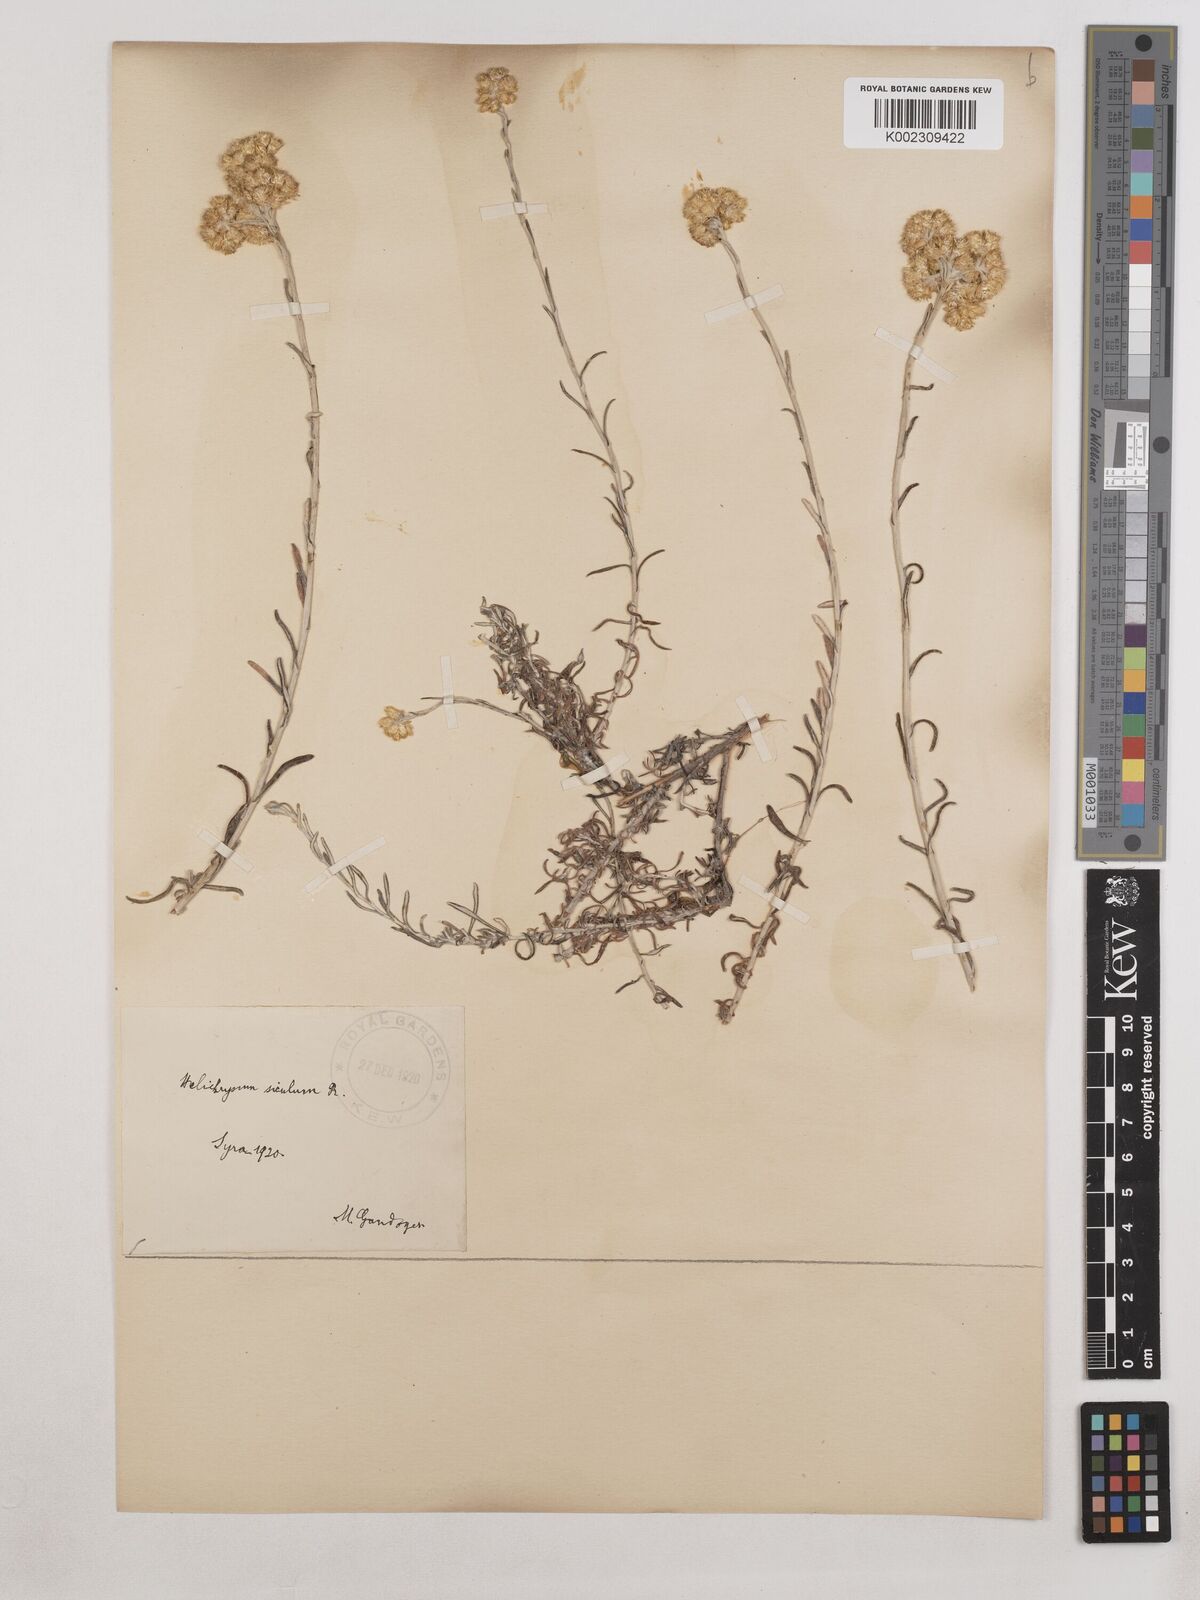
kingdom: Plantae
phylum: Tracheophyta
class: Magnoliopsida
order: Asterales
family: Asteraceae
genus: Helichrysum
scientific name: Helichrysum stoechas
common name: Goldilocks
